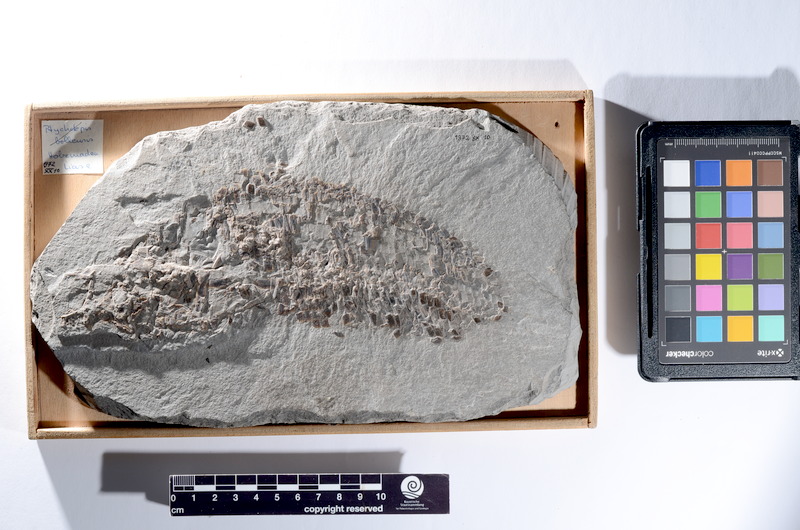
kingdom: Animalia
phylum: Chordata
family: Dapediidae
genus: Dapedium
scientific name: Dapedium
